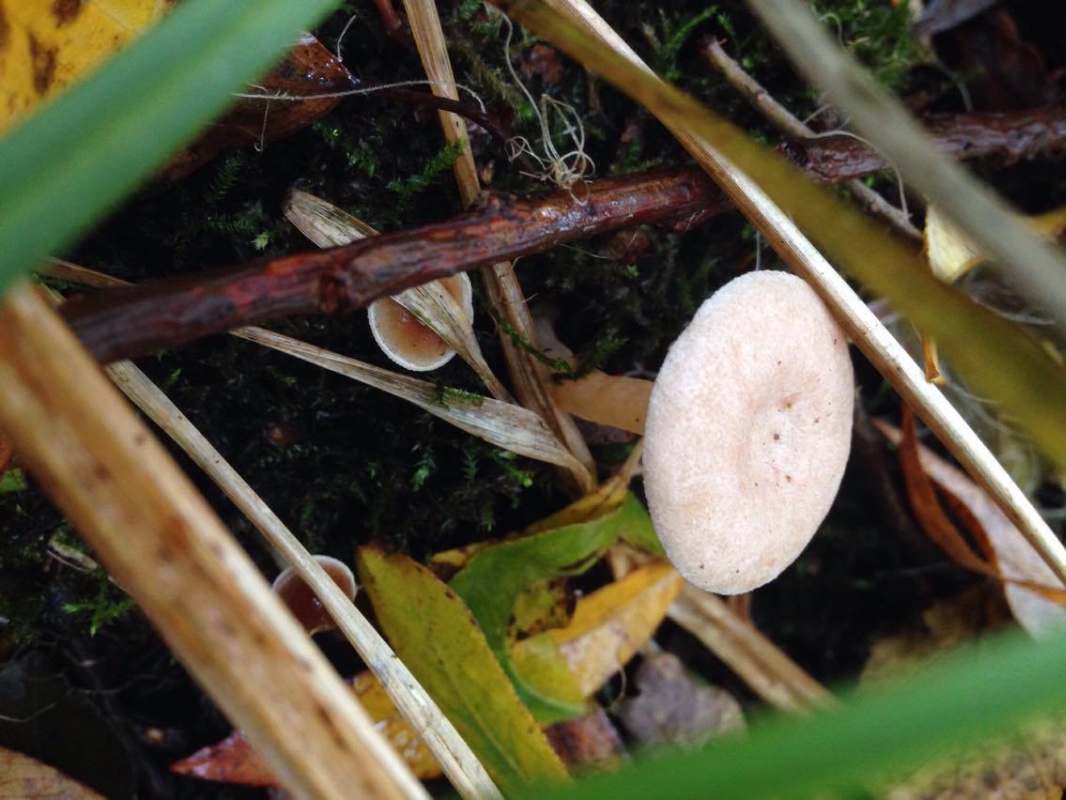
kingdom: Fungi
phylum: Basidiomycota
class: Agaricomycetes
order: Russulales
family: Russulaceae
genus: Lactarius
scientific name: Lactarius glyciosmus
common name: kokos-mælkehat
